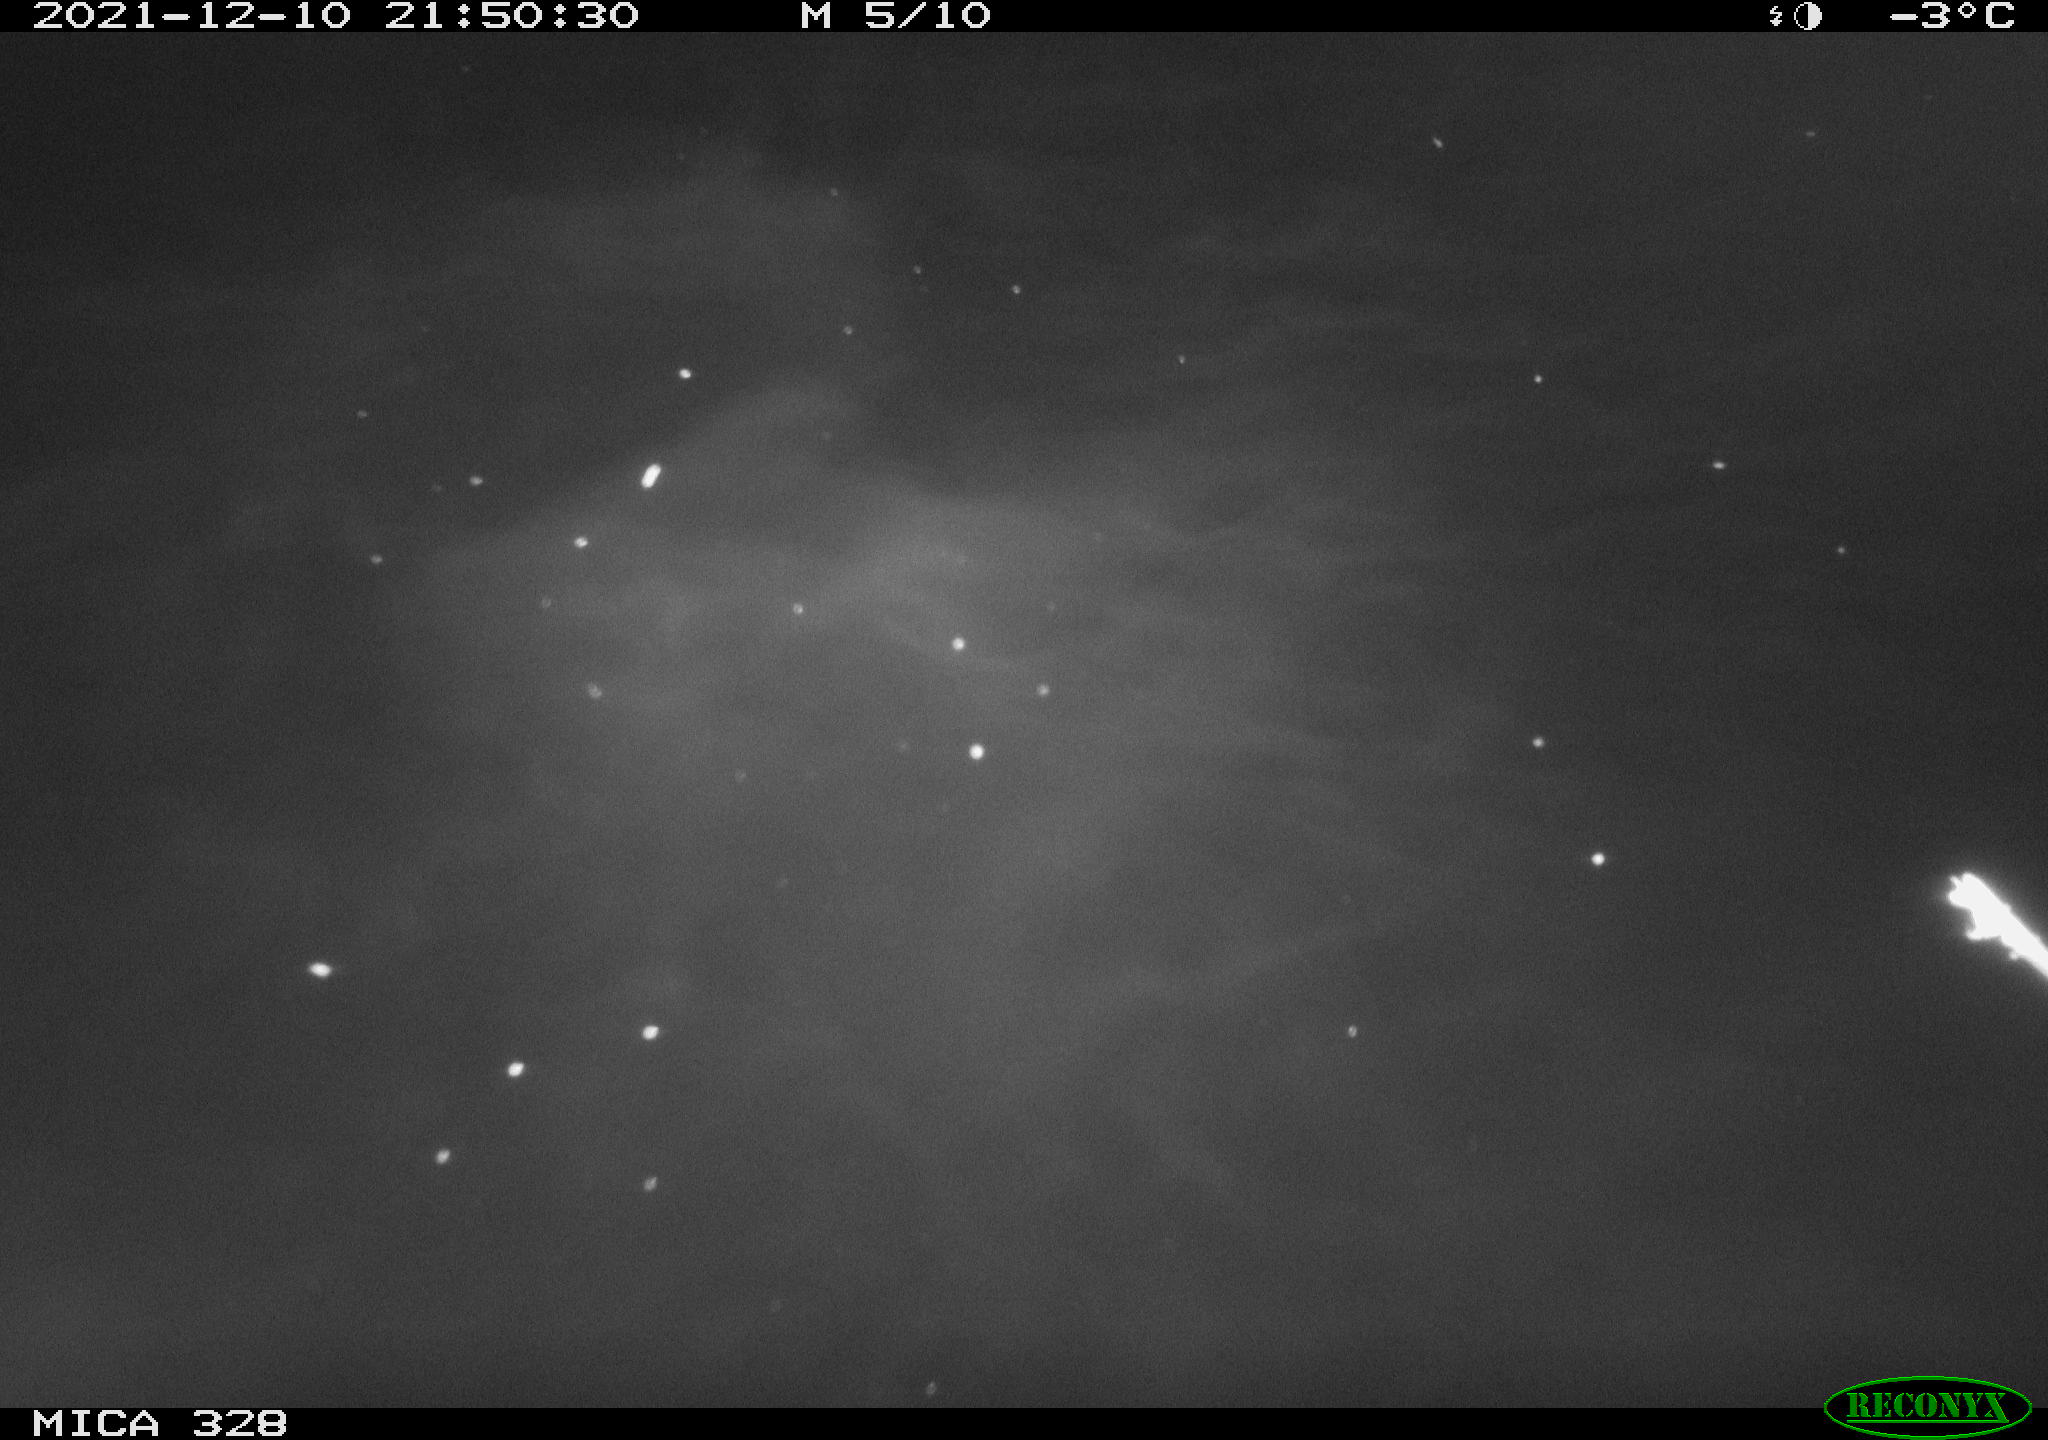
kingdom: Animalia
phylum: Chordata
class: Aves
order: Anseriformes
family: Anatidae
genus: Anas
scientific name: Anas platyrhynchos
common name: Mallard
